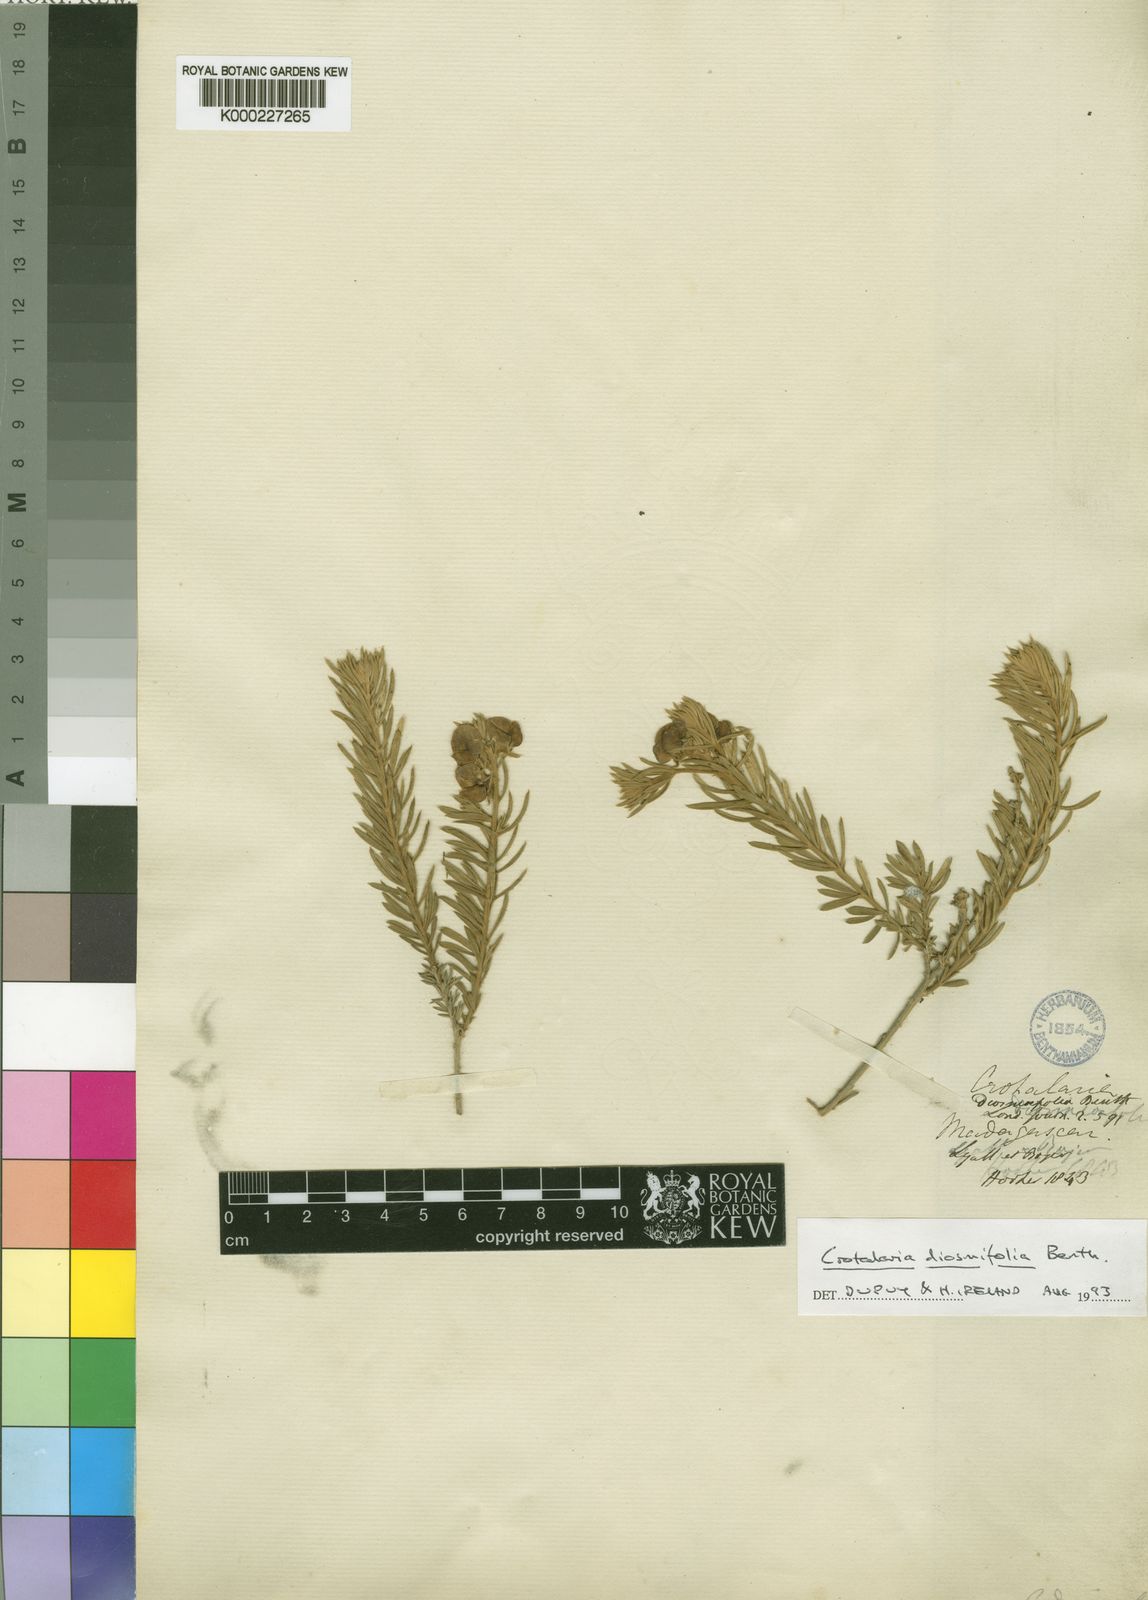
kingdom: Plantae
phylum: Tracheophyta
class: Magnoliopsida
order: Fabales
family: Fabaceae
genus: Crotalaria
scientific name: Crotalaria diosmifolia
